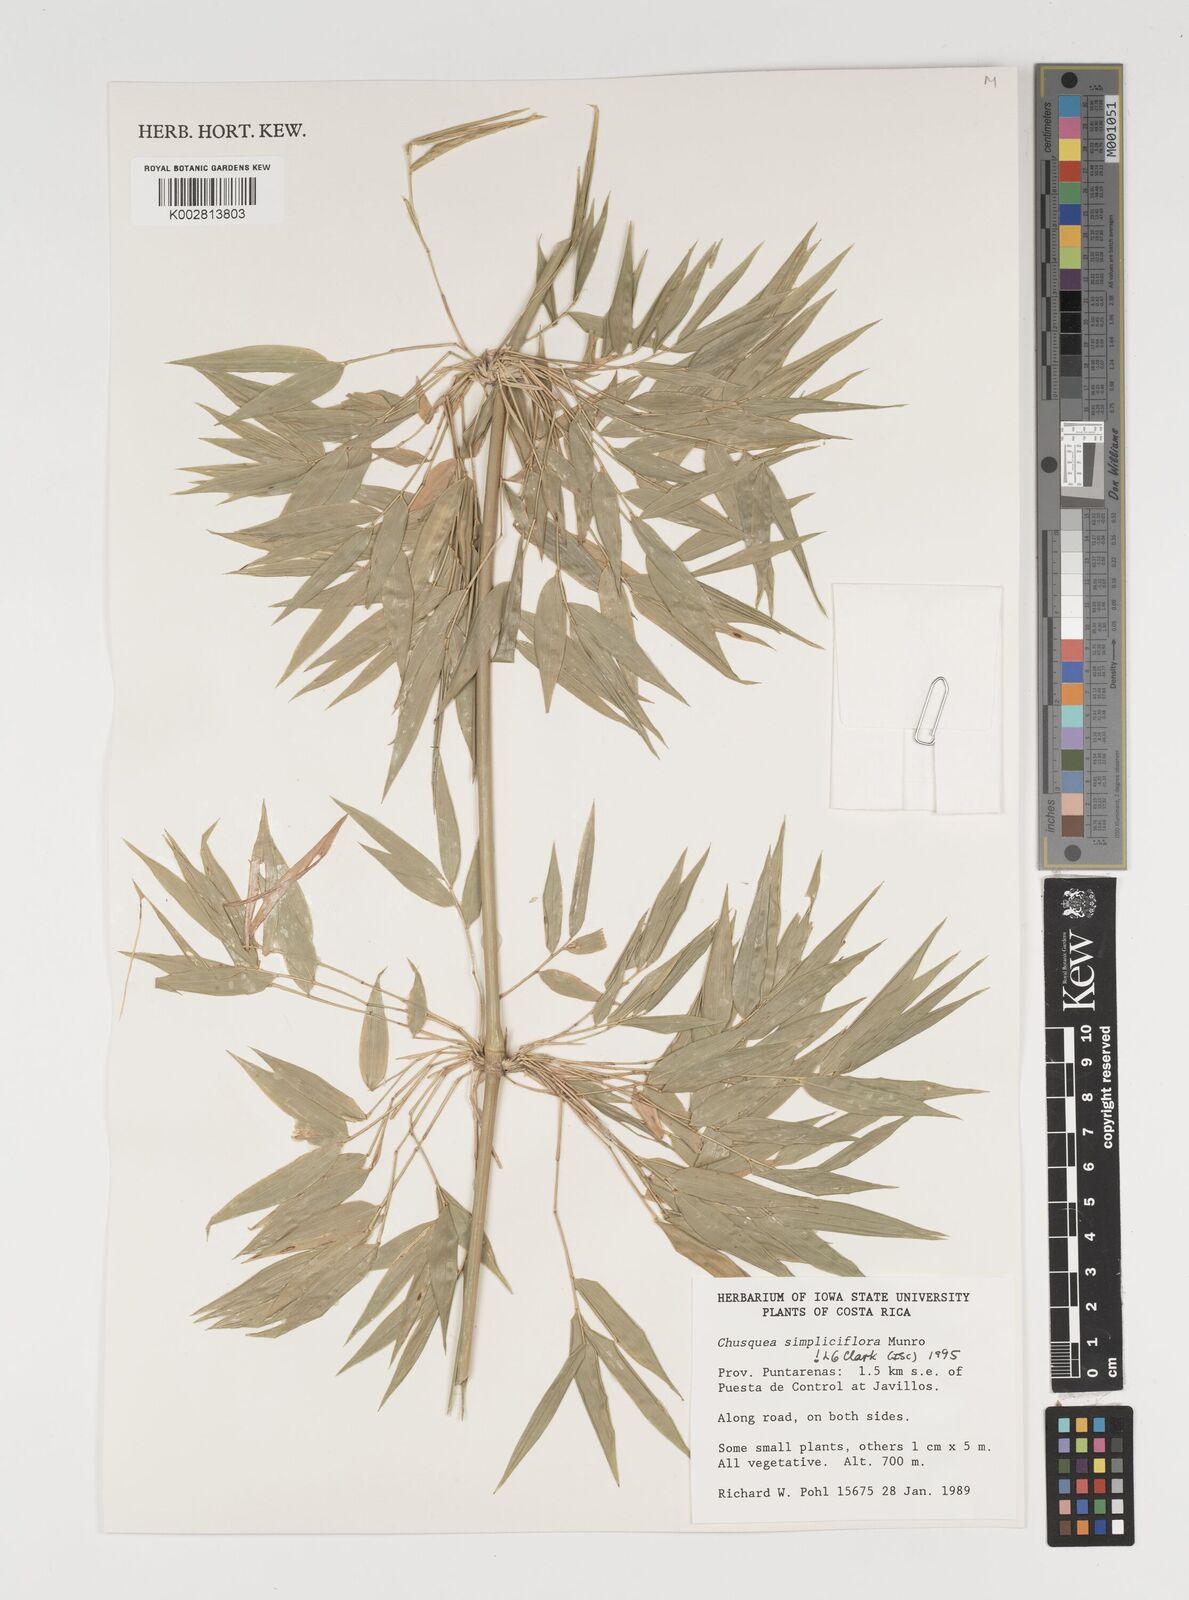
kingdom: Plantae
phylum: Tracheophyta
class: Liliopsida
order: Poales
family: Poaceae
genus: Chusquea
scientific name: Chusquea simpliciflora
